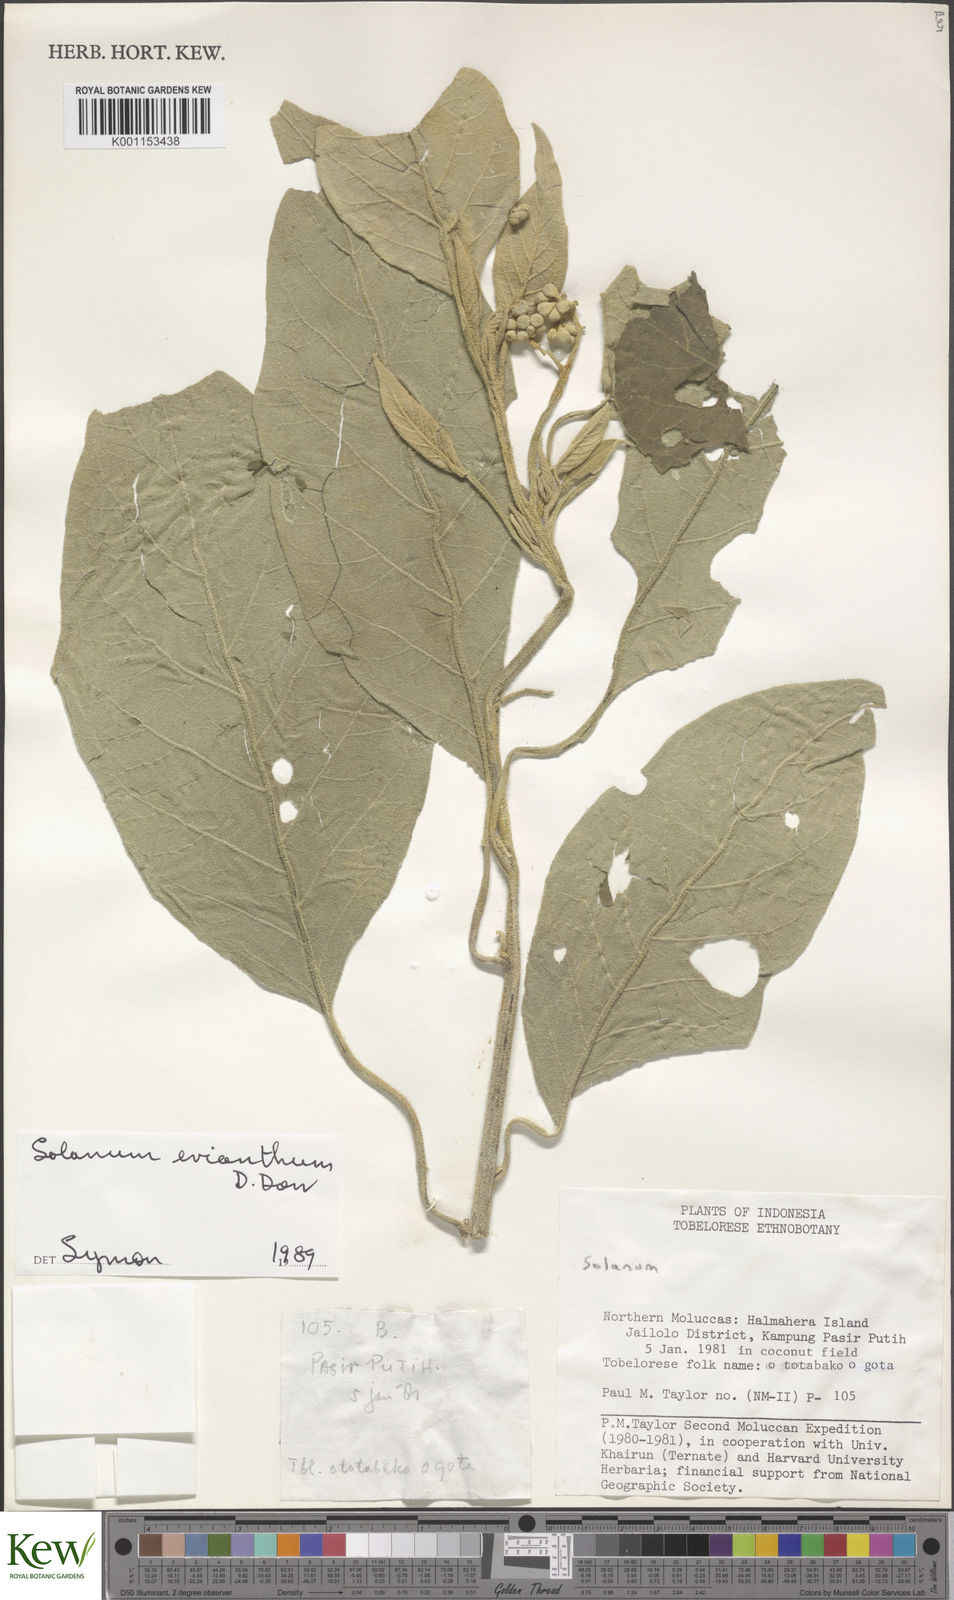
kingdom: Plantae
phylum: Tracheophyta
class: Magnoliopsida
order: Solanales
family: Solanaceae
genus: Solanum
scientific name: Solanum erianthum
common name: Tobacco-tree
